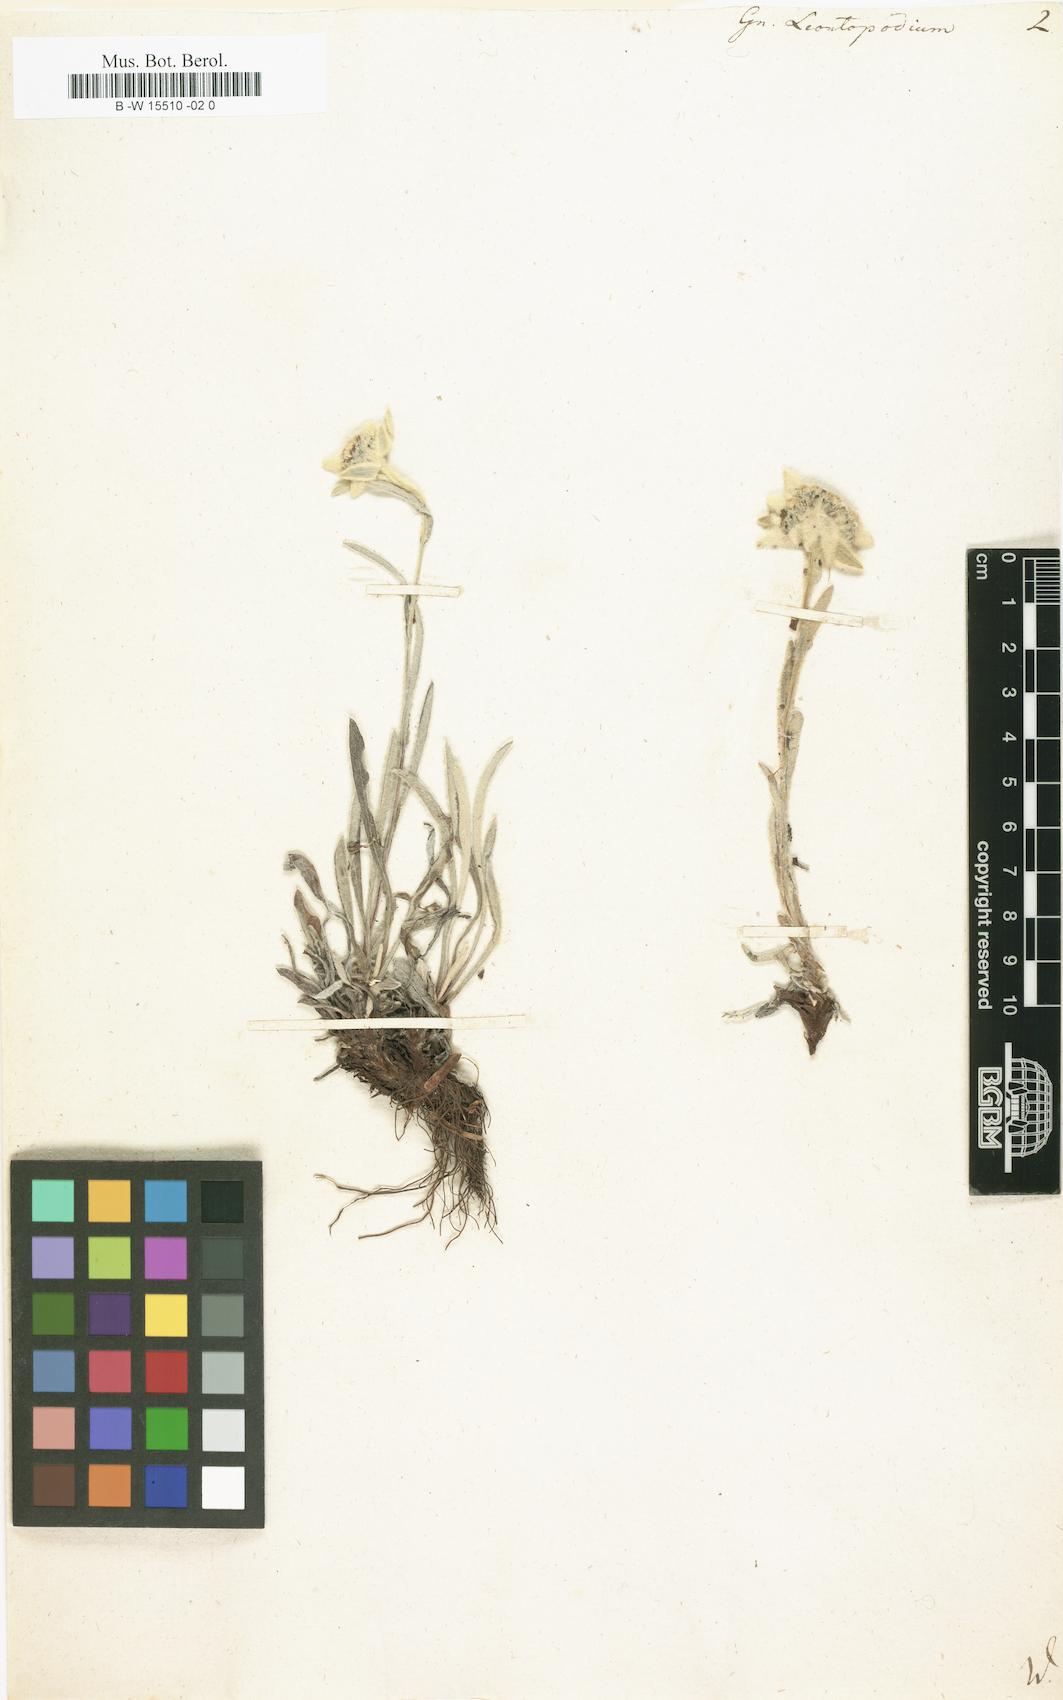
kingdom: Plantae
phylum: Tracheophyta
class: Magnoliopsida
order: Asterales
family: Asteraceae
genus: Gnaphalium
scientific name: Gnaphalium leontopodium
